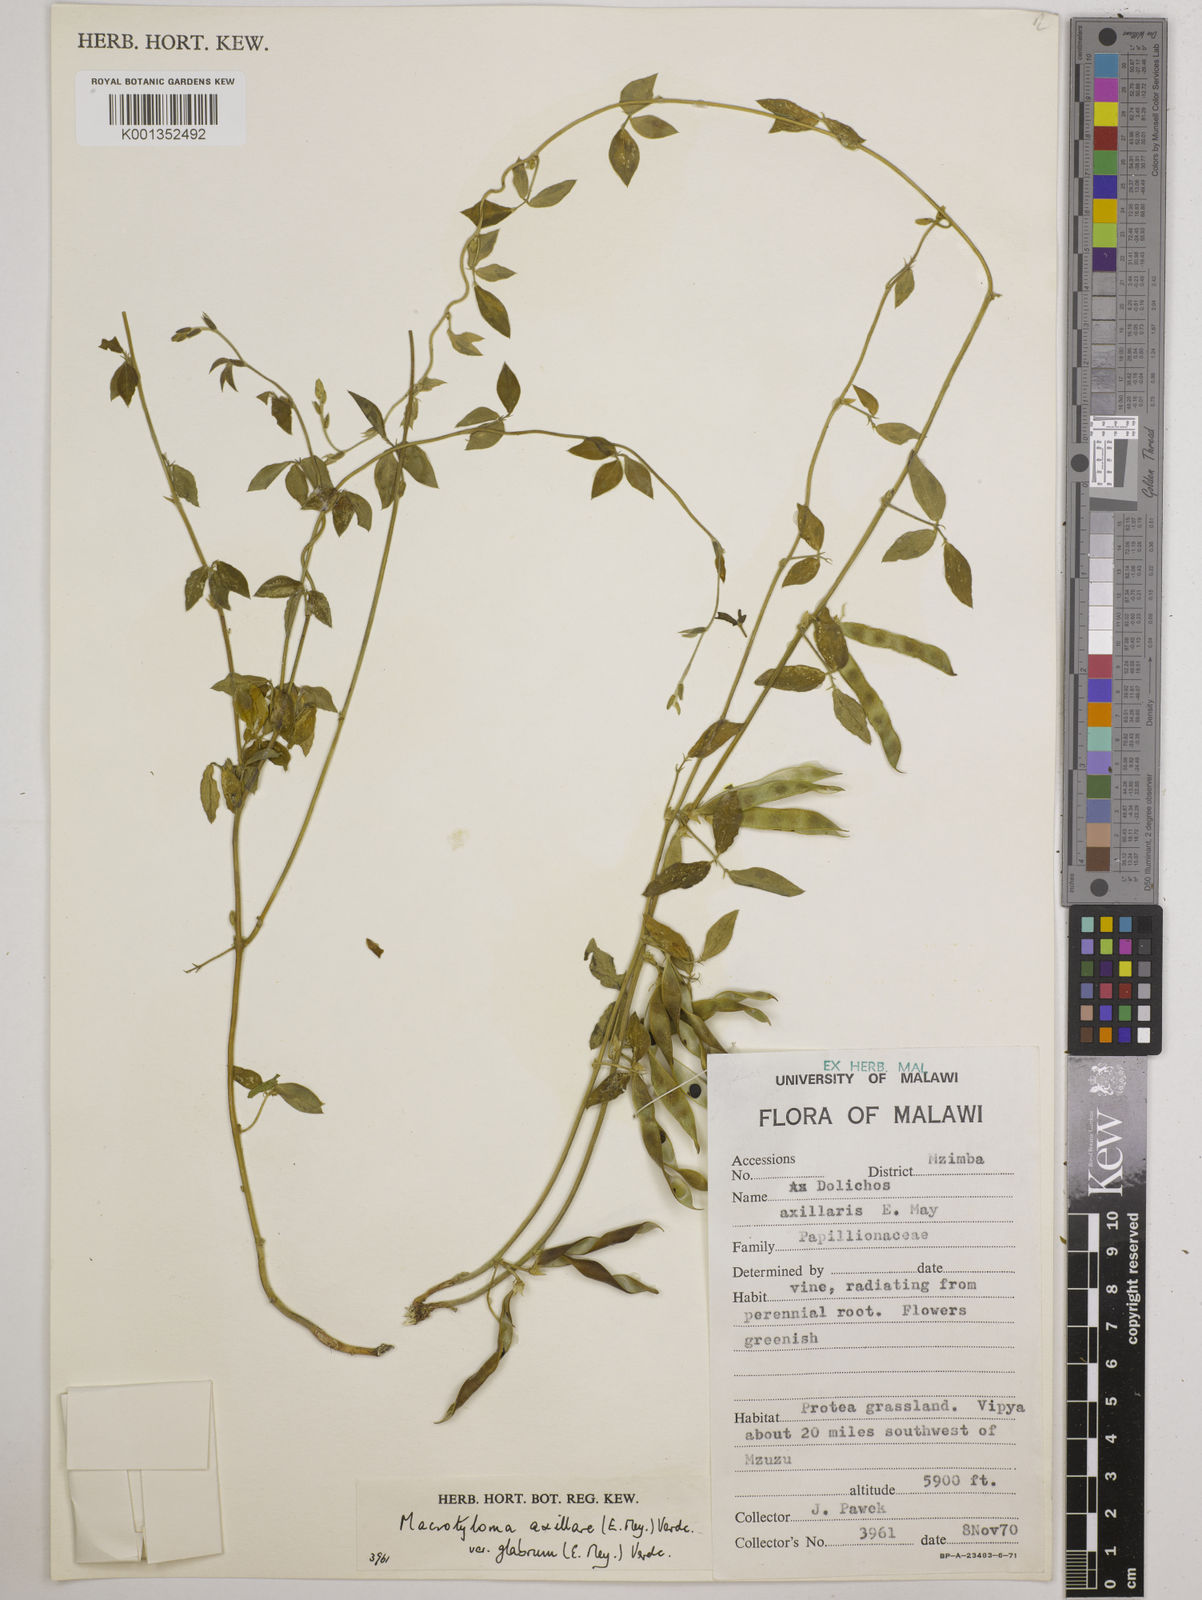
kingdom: Plantae
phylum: Tracheophyta
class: Magnoliopsida
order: Fabales
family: Fabaceae
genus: Macrotyloma
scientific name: Macrotyloma
